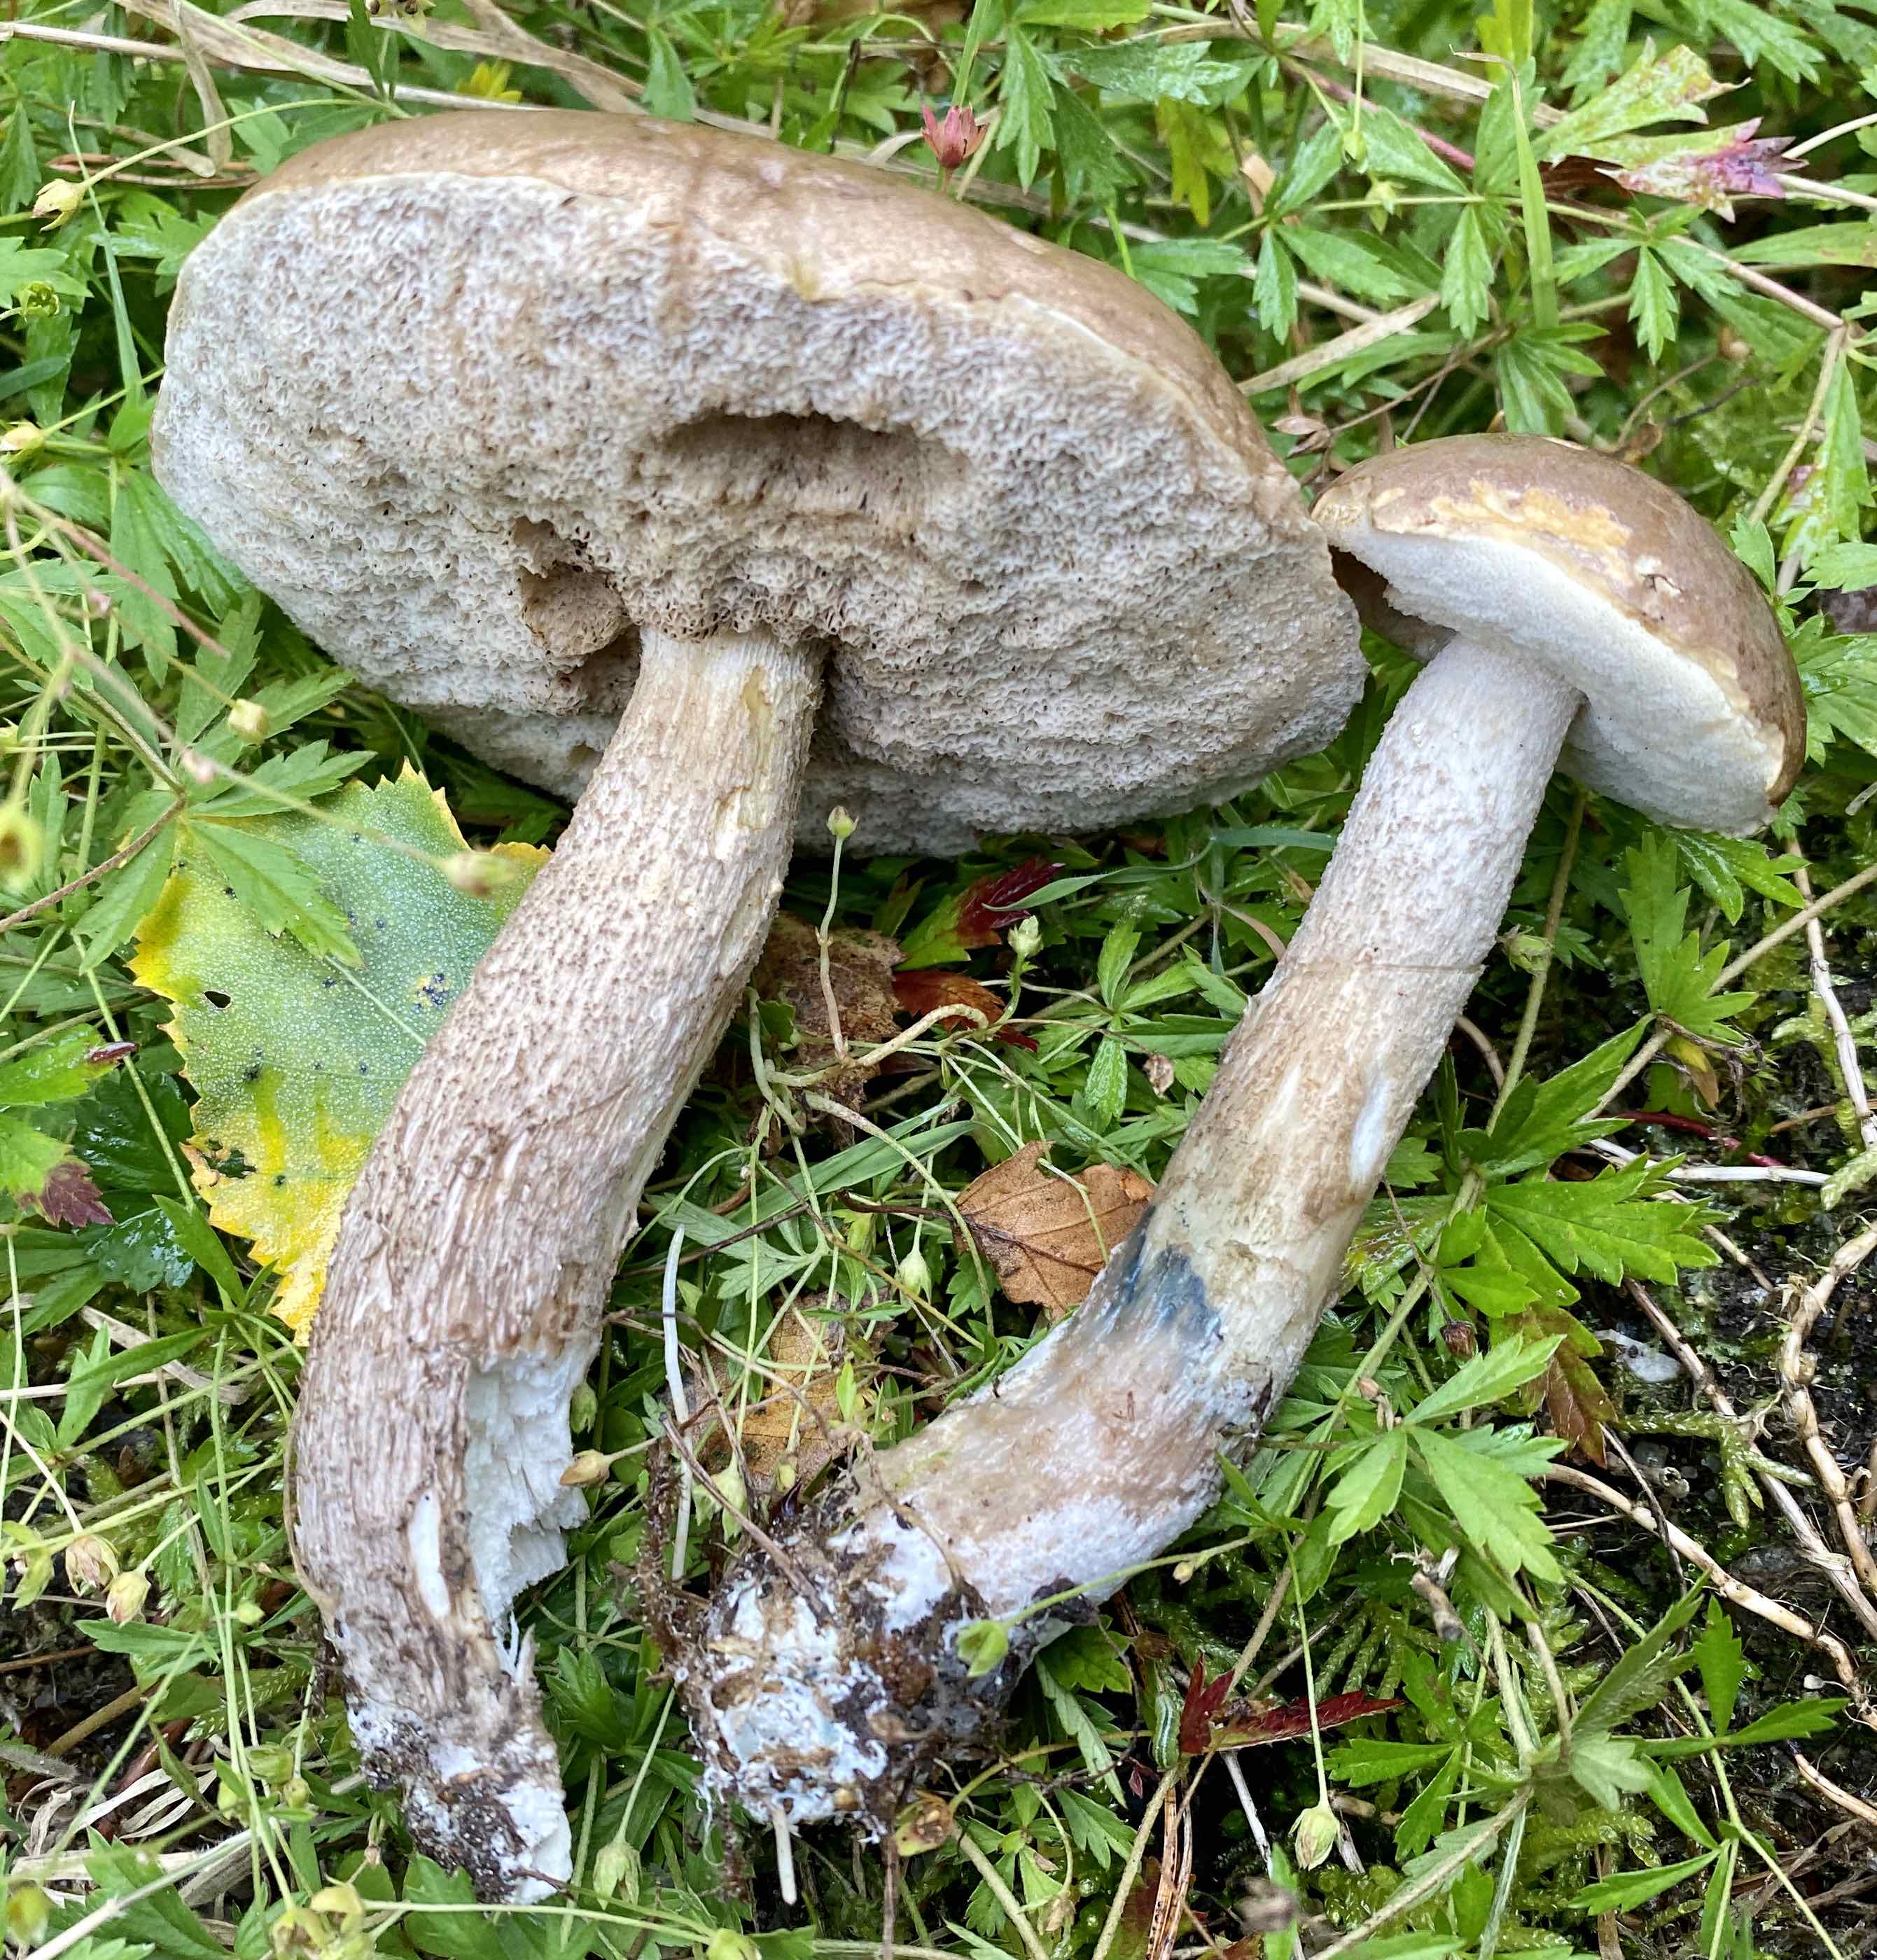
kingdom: Fungi
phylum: Basidiomycota
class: Agaricomycetes
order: Boletales
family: Boletaceae
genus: Leccinum
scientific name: Leccinum cyaneobasileucum
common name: almindelig skælrørhat
